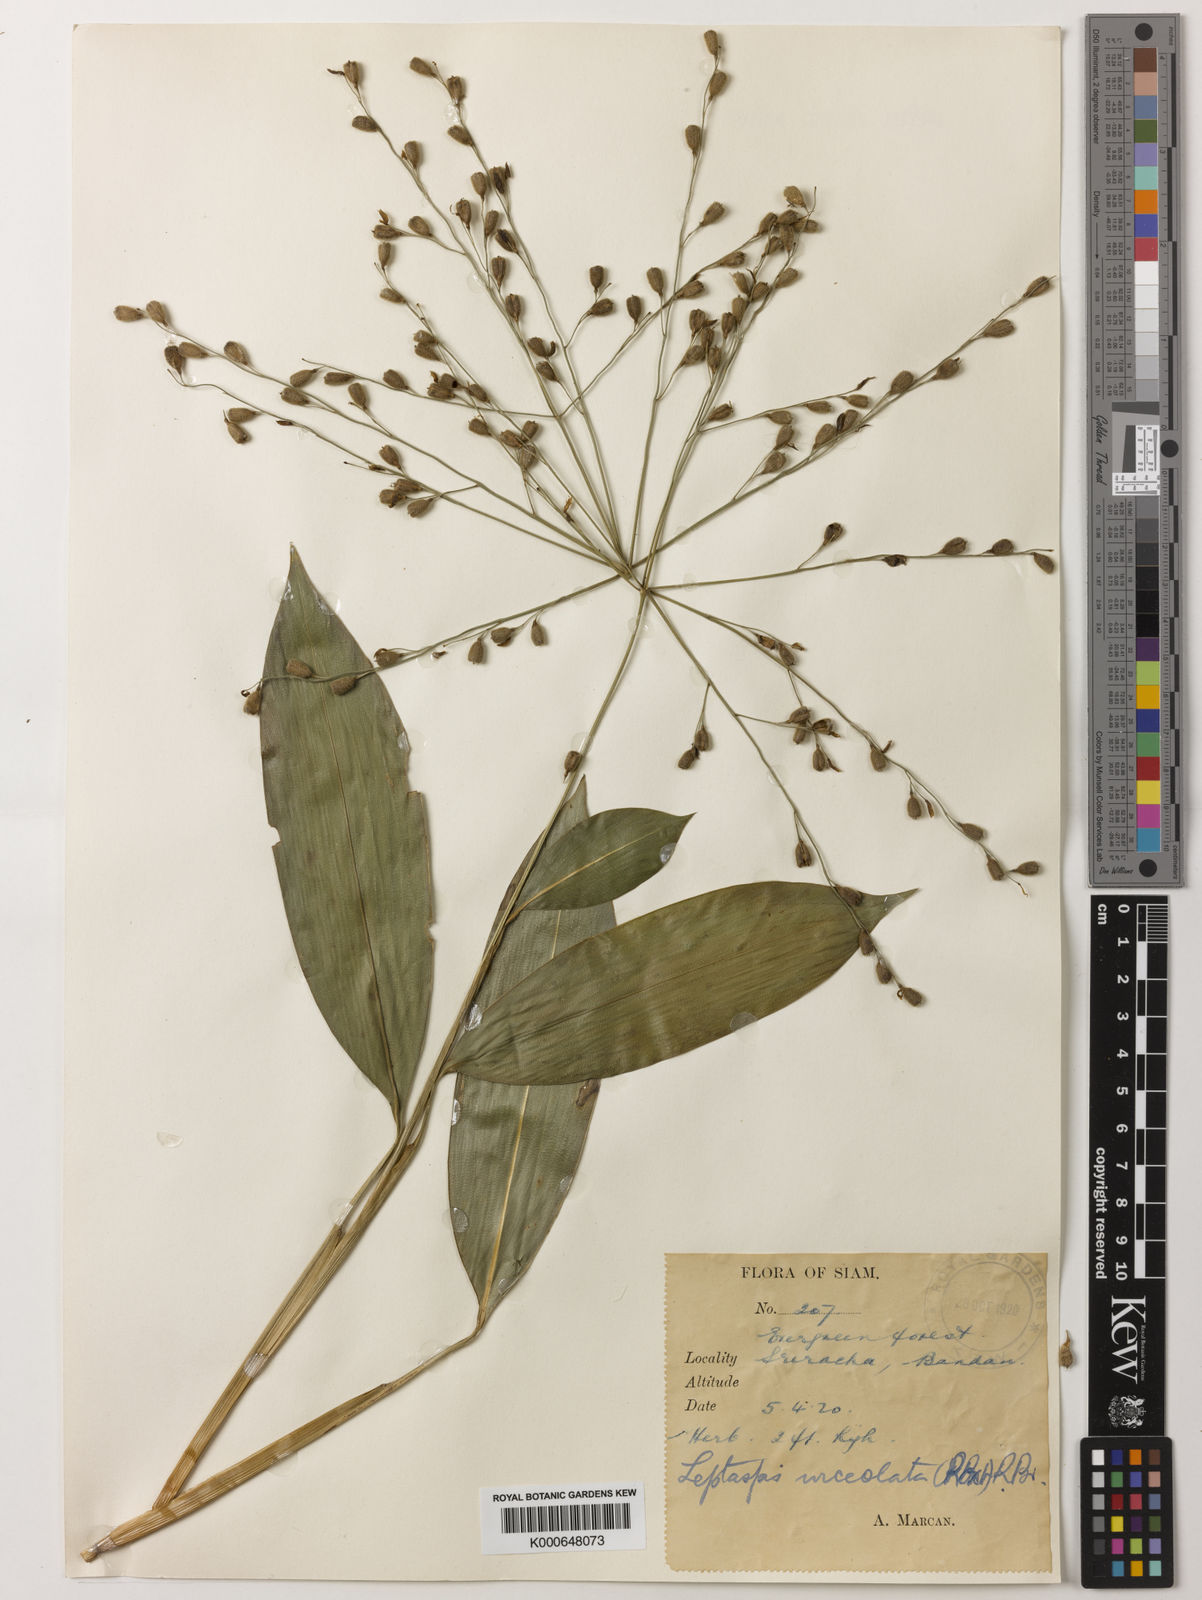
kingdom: Plantae
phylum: Tracheophyta
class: Liliopsida
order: Poales
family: Poaceae
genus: Scrotochloa
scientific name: Scrotochloa urceolata
